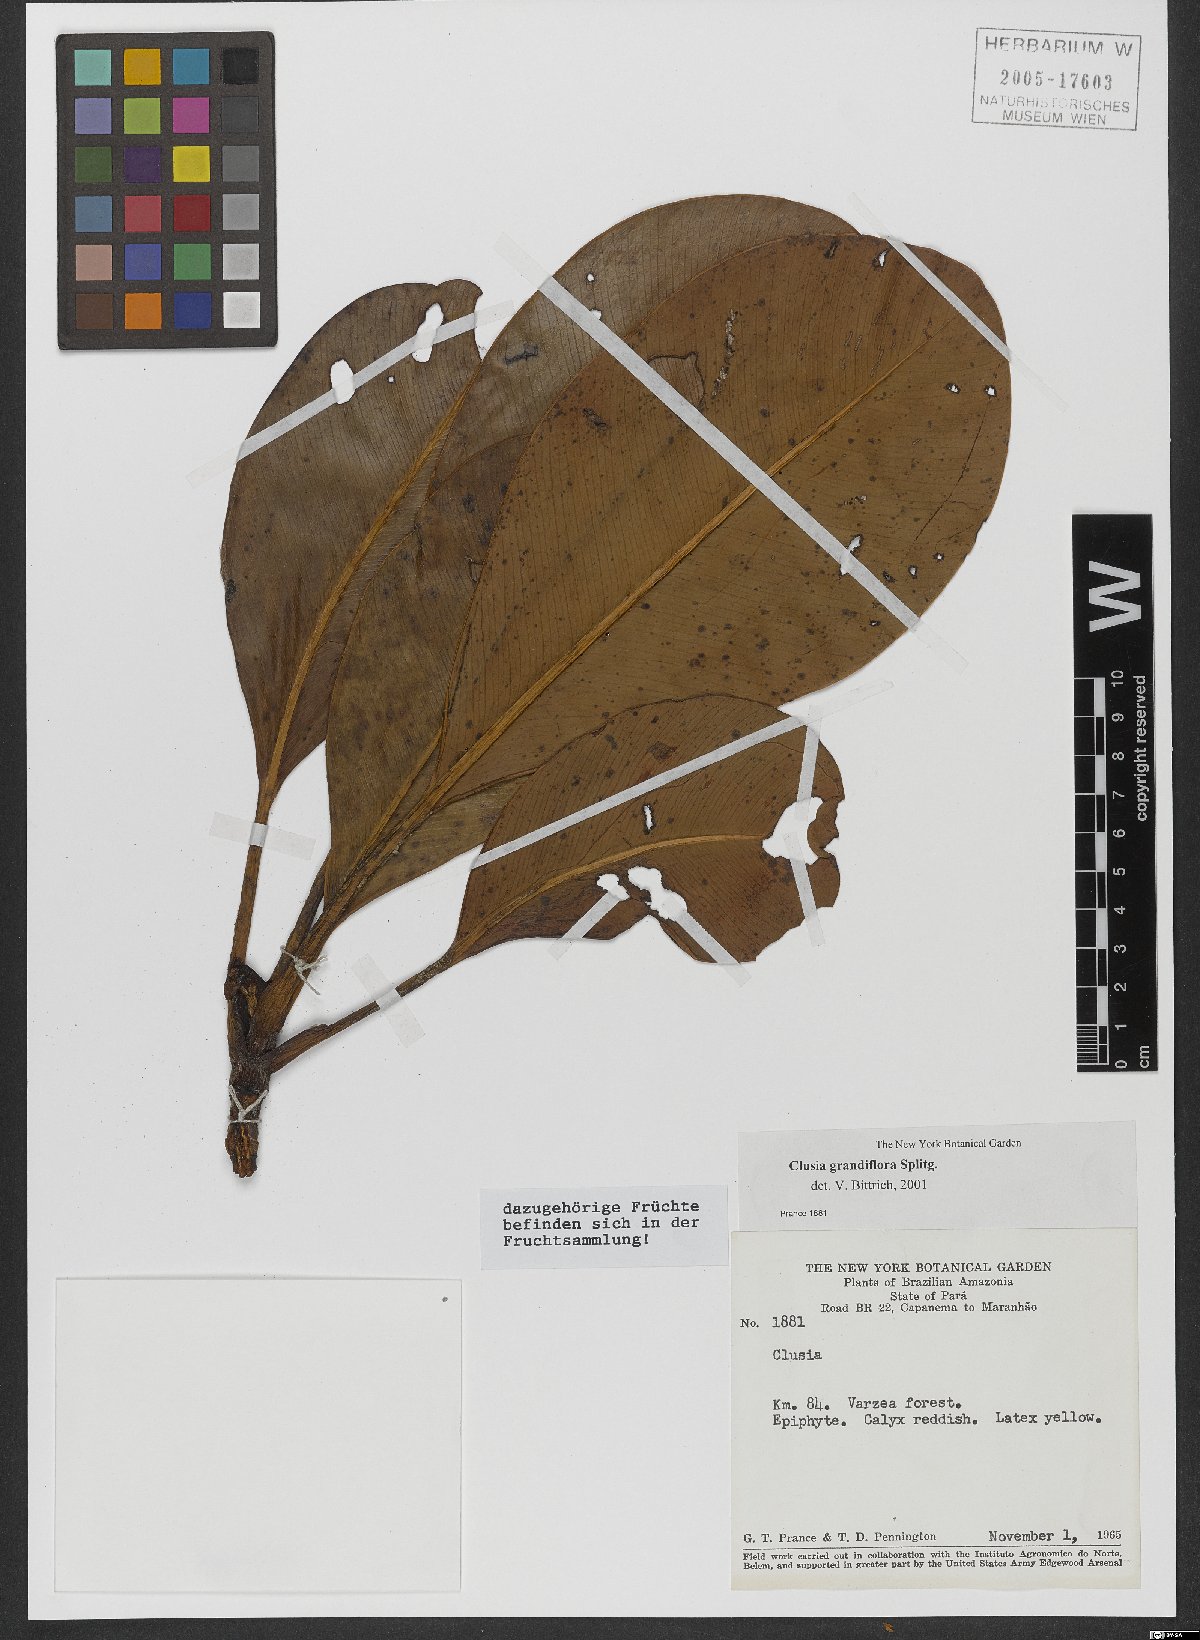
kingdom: Plantae
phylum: Tracheophyta
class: Magnoliopsida
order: Malpighiales
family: Clusiaceae
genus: Clusia
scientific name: Clusia candelabrum
